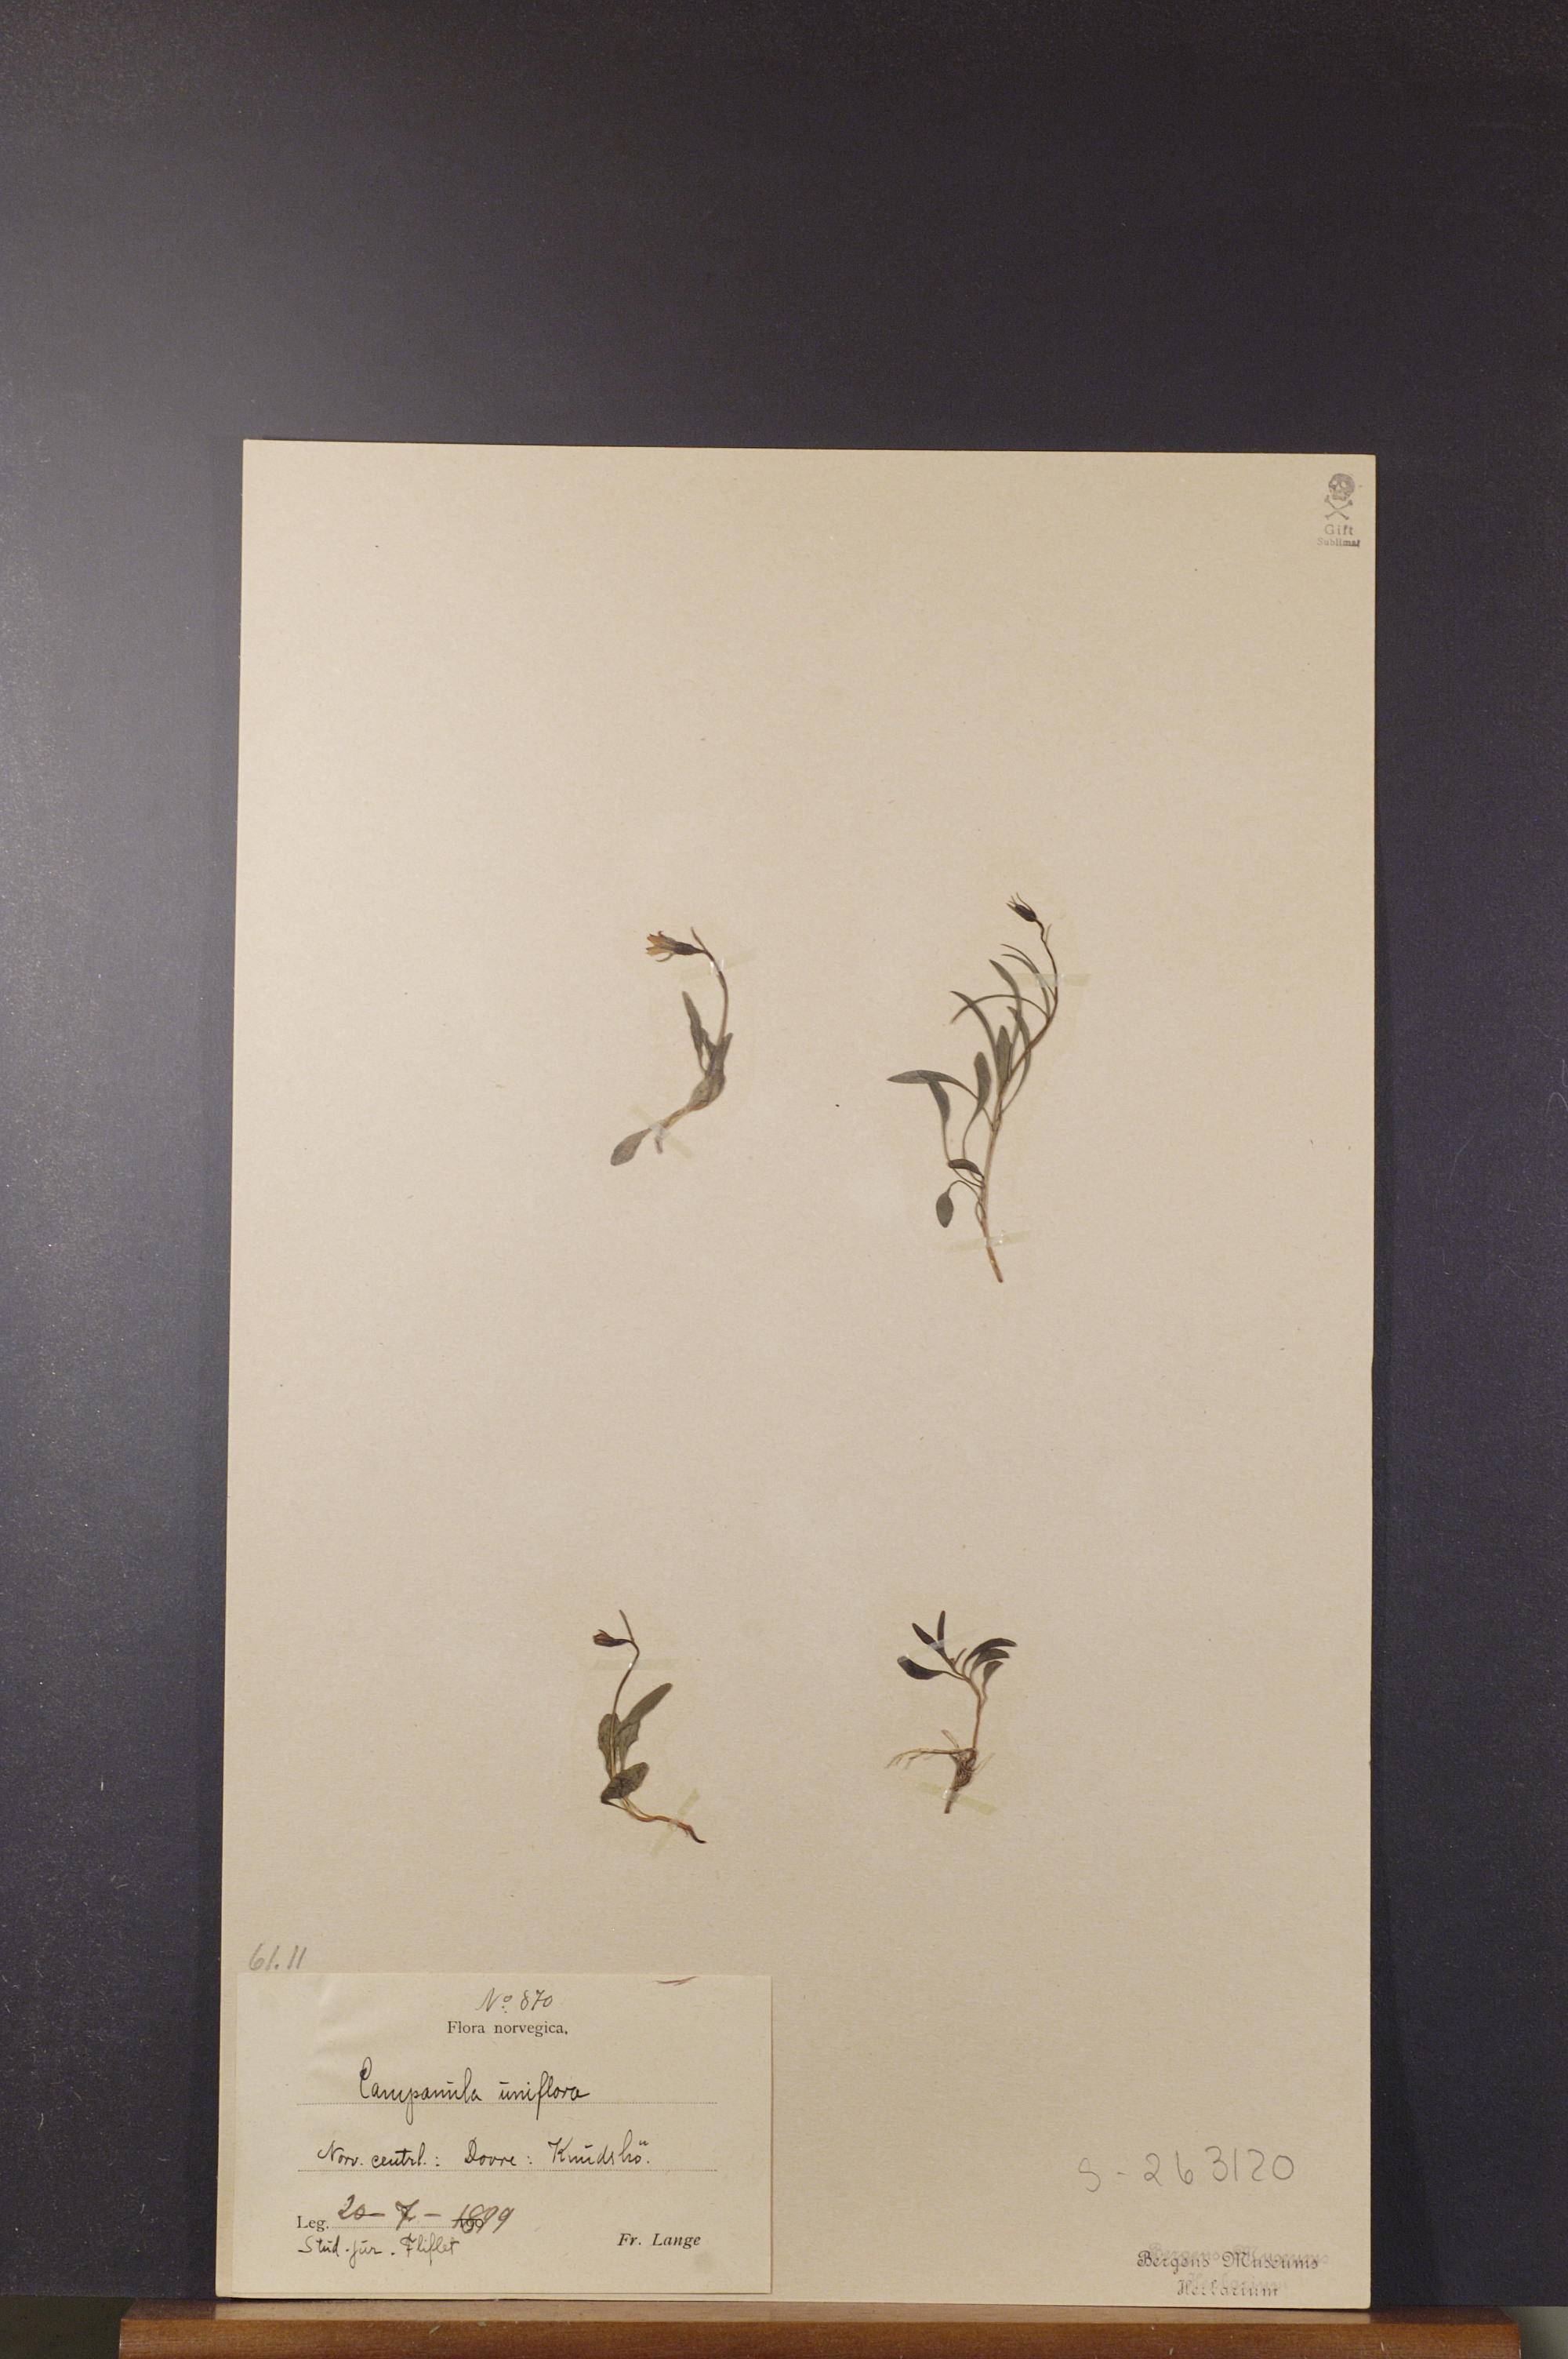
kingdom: Plantae
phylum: Tracheophyta
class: Magnoliopsida
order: Asterales
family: Campanulaceae
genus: Melanocalyx
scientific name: Melanocalyx uniflora
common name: Alpine harebell
